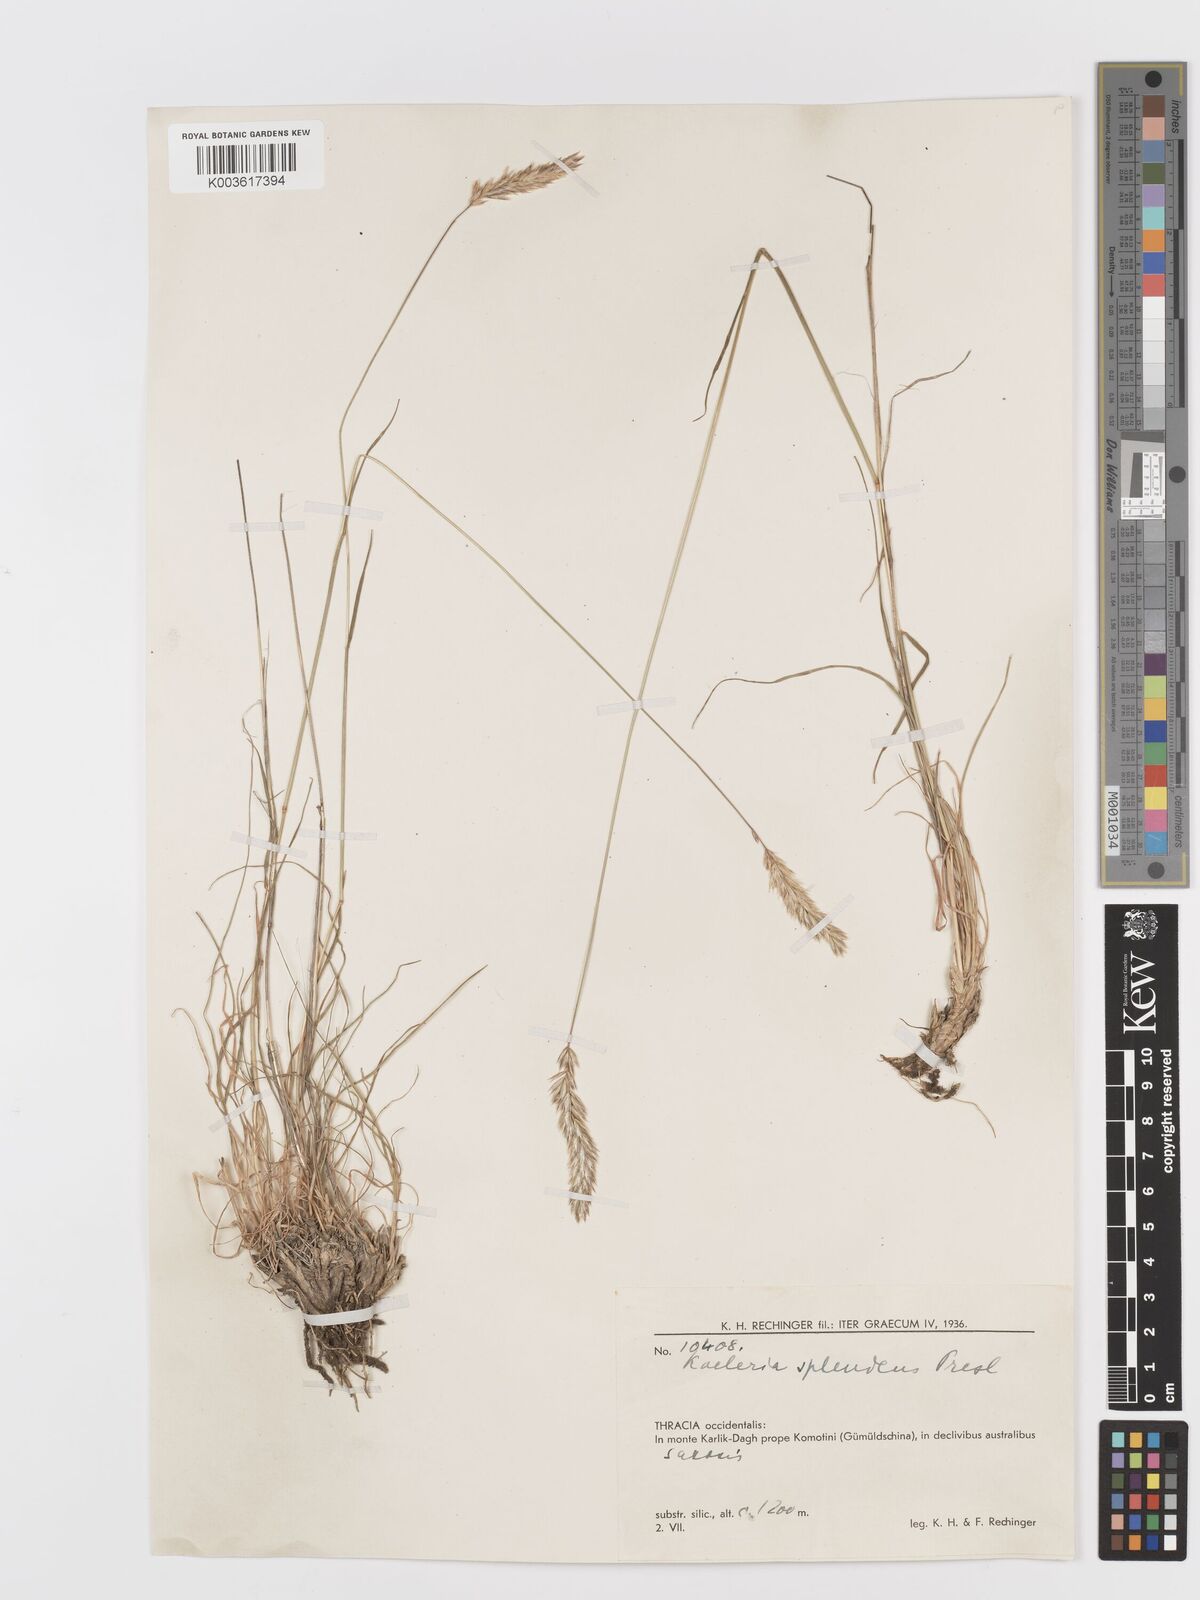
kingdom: Plantae
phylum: Tracheophyta
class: Liliopsida
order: Poales
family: Poaceae
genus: Koeleria
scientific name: Koeleria splendens
